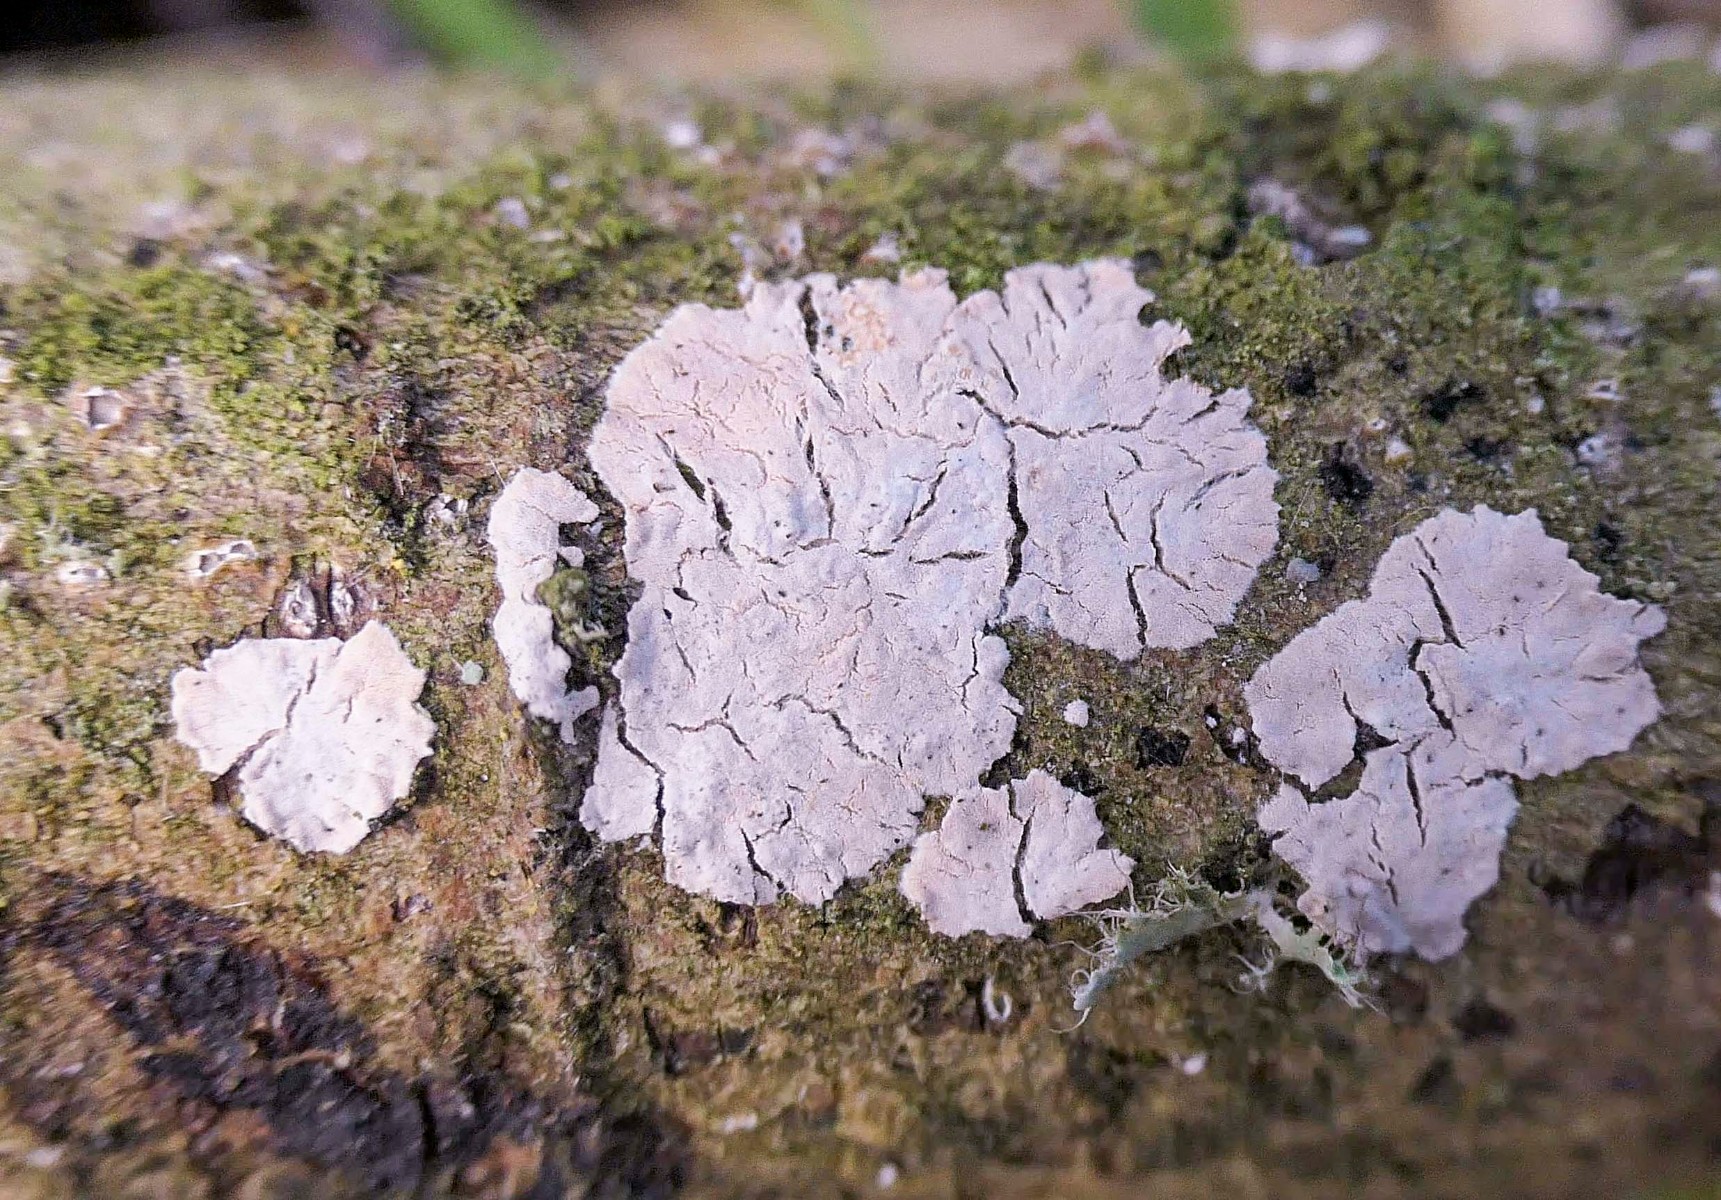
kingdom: Fungi
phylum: Basidiomycota
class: Agaricomycetes
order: Corticiales
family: Corticiaceae
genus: Corticium
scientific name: Corticium roseum
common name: rosa barkskind
